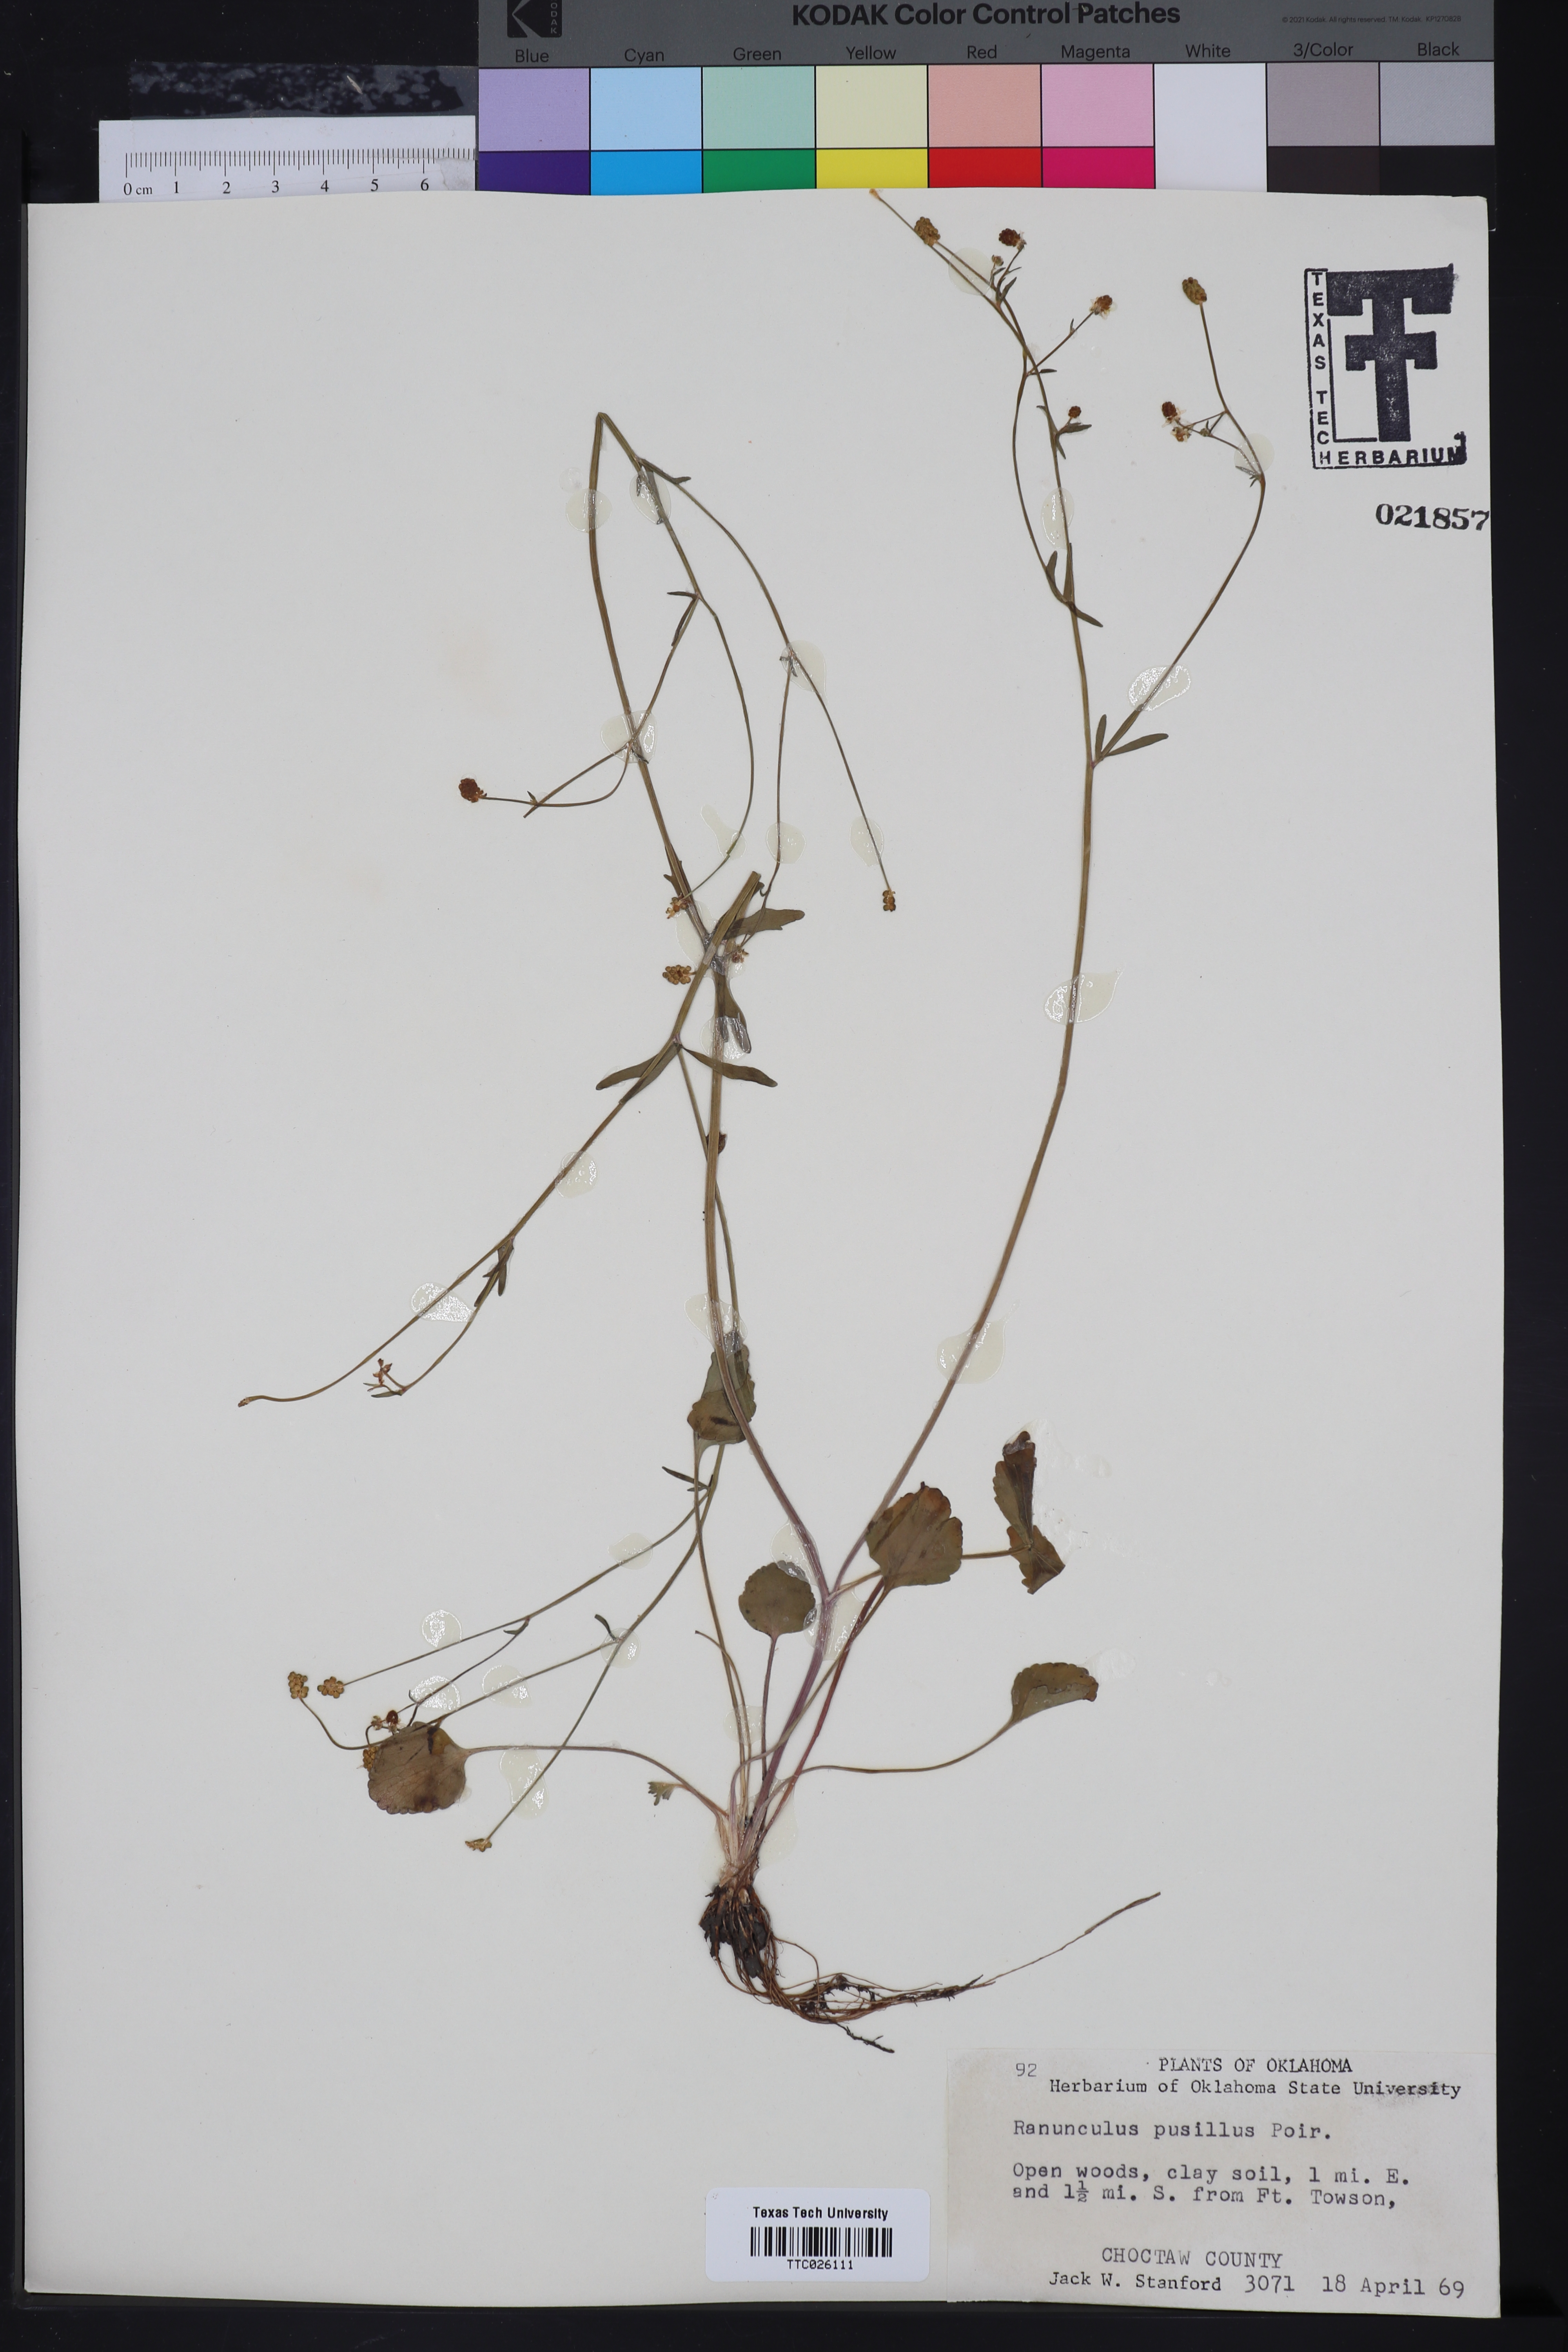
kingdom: Plantae
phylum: Tracheophyta
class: Magnoliopsida
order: Ranunculales
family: Ranunculaceae
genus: Ranunculus
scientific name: Ranunculus pusillus
